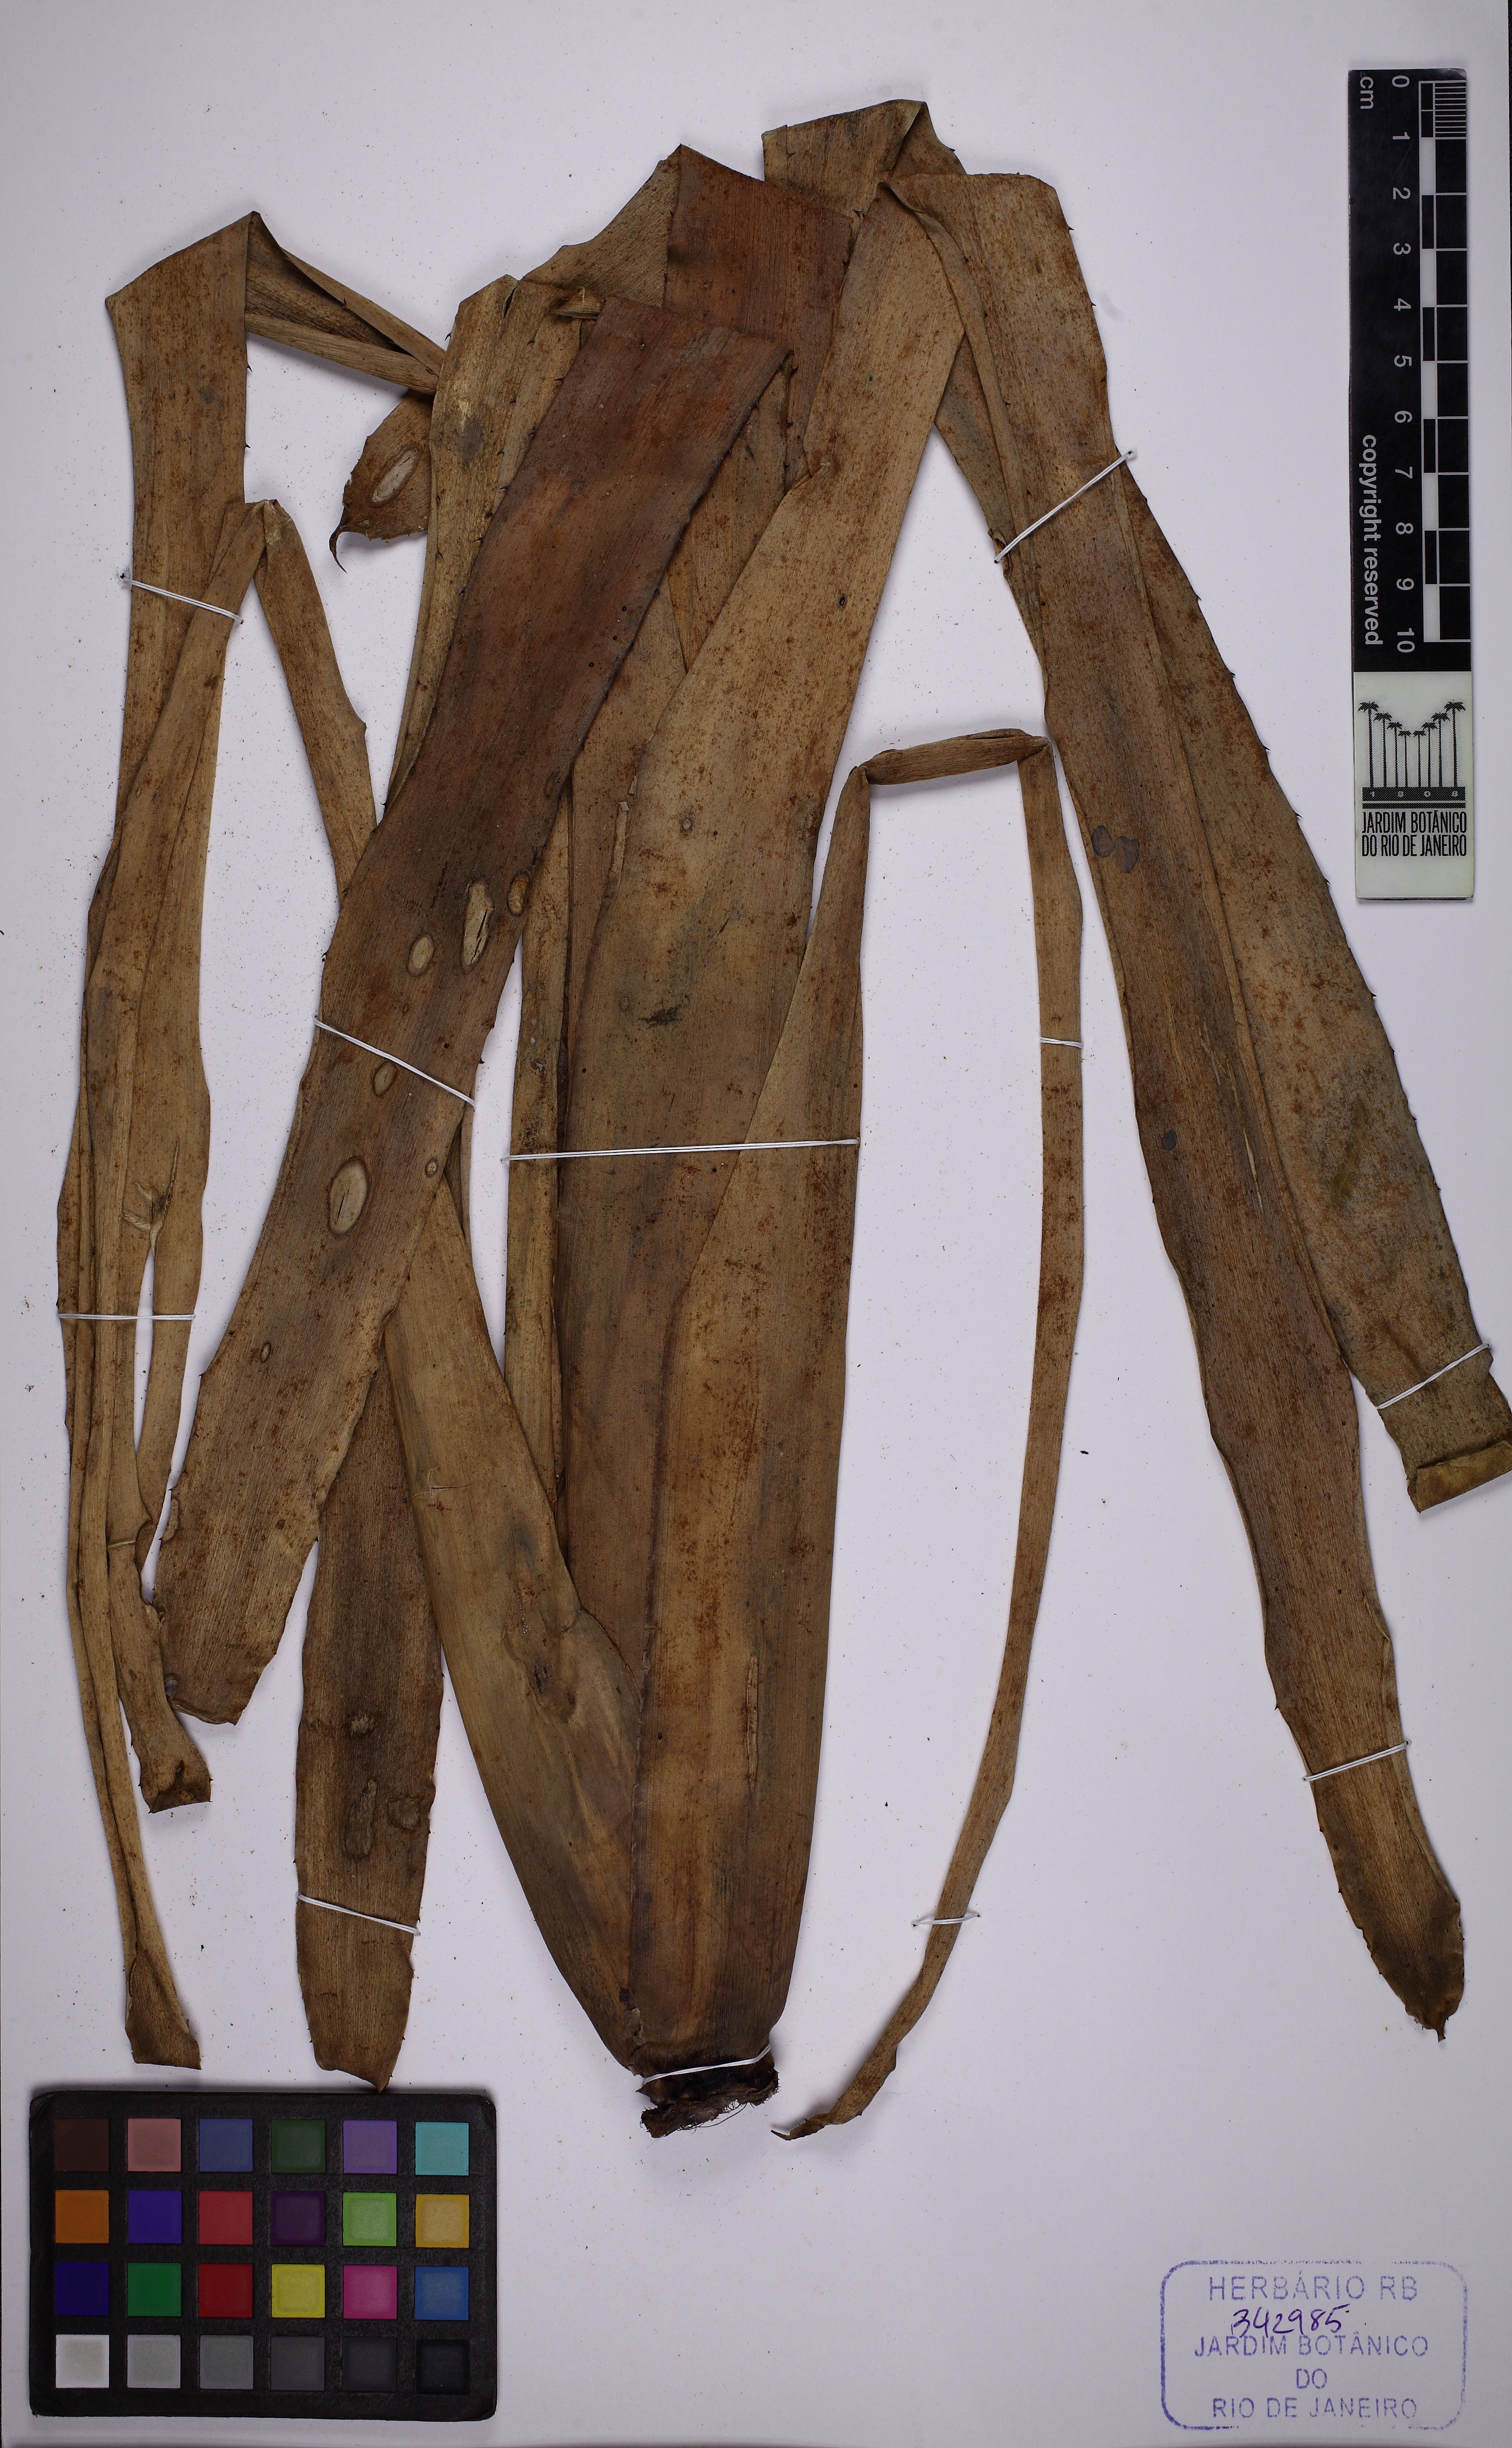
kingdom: Plantae
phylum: Tracheophyta
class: Liliopsida
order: Poales
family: Bromeliaceae
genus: Billbergia
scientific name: Billbergia amoena
